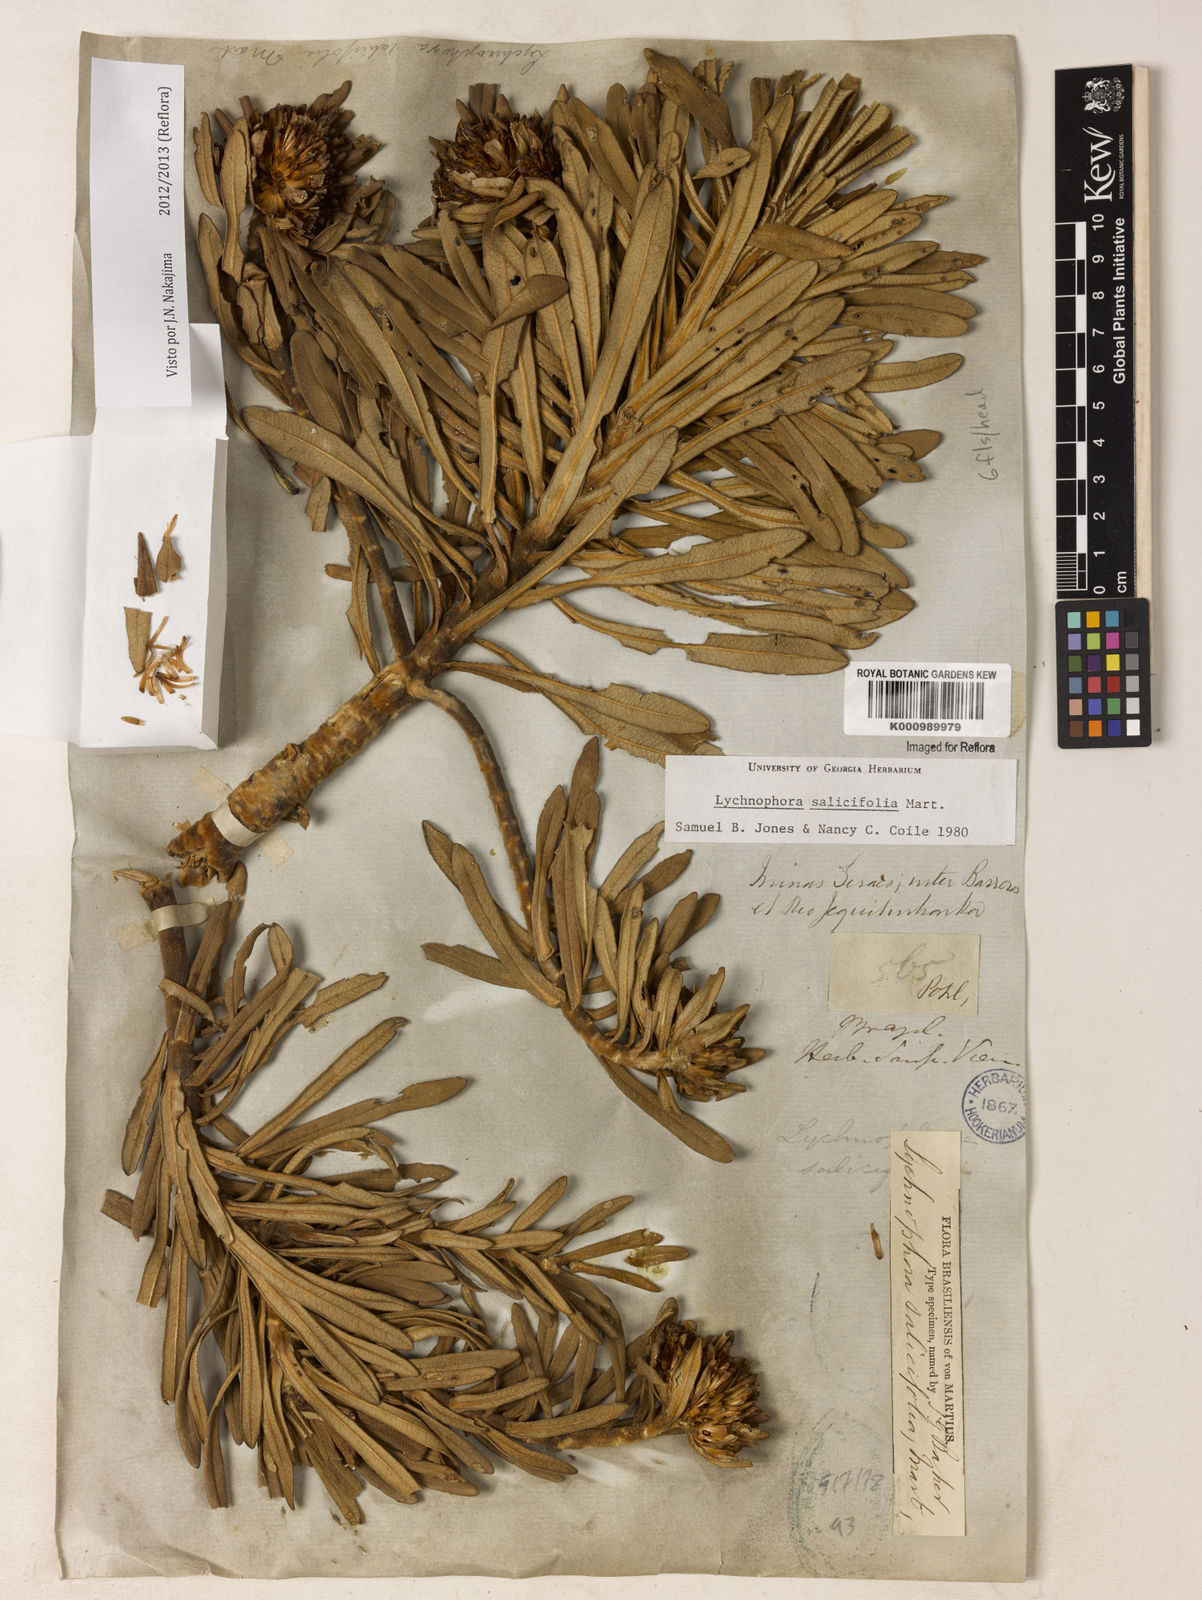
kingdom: Plantae
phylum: Tracheophyta
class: Magnoliopsida
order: Asterales
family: Asteraceae
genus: Lychnophora
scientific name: Lychnophora salicifolia
